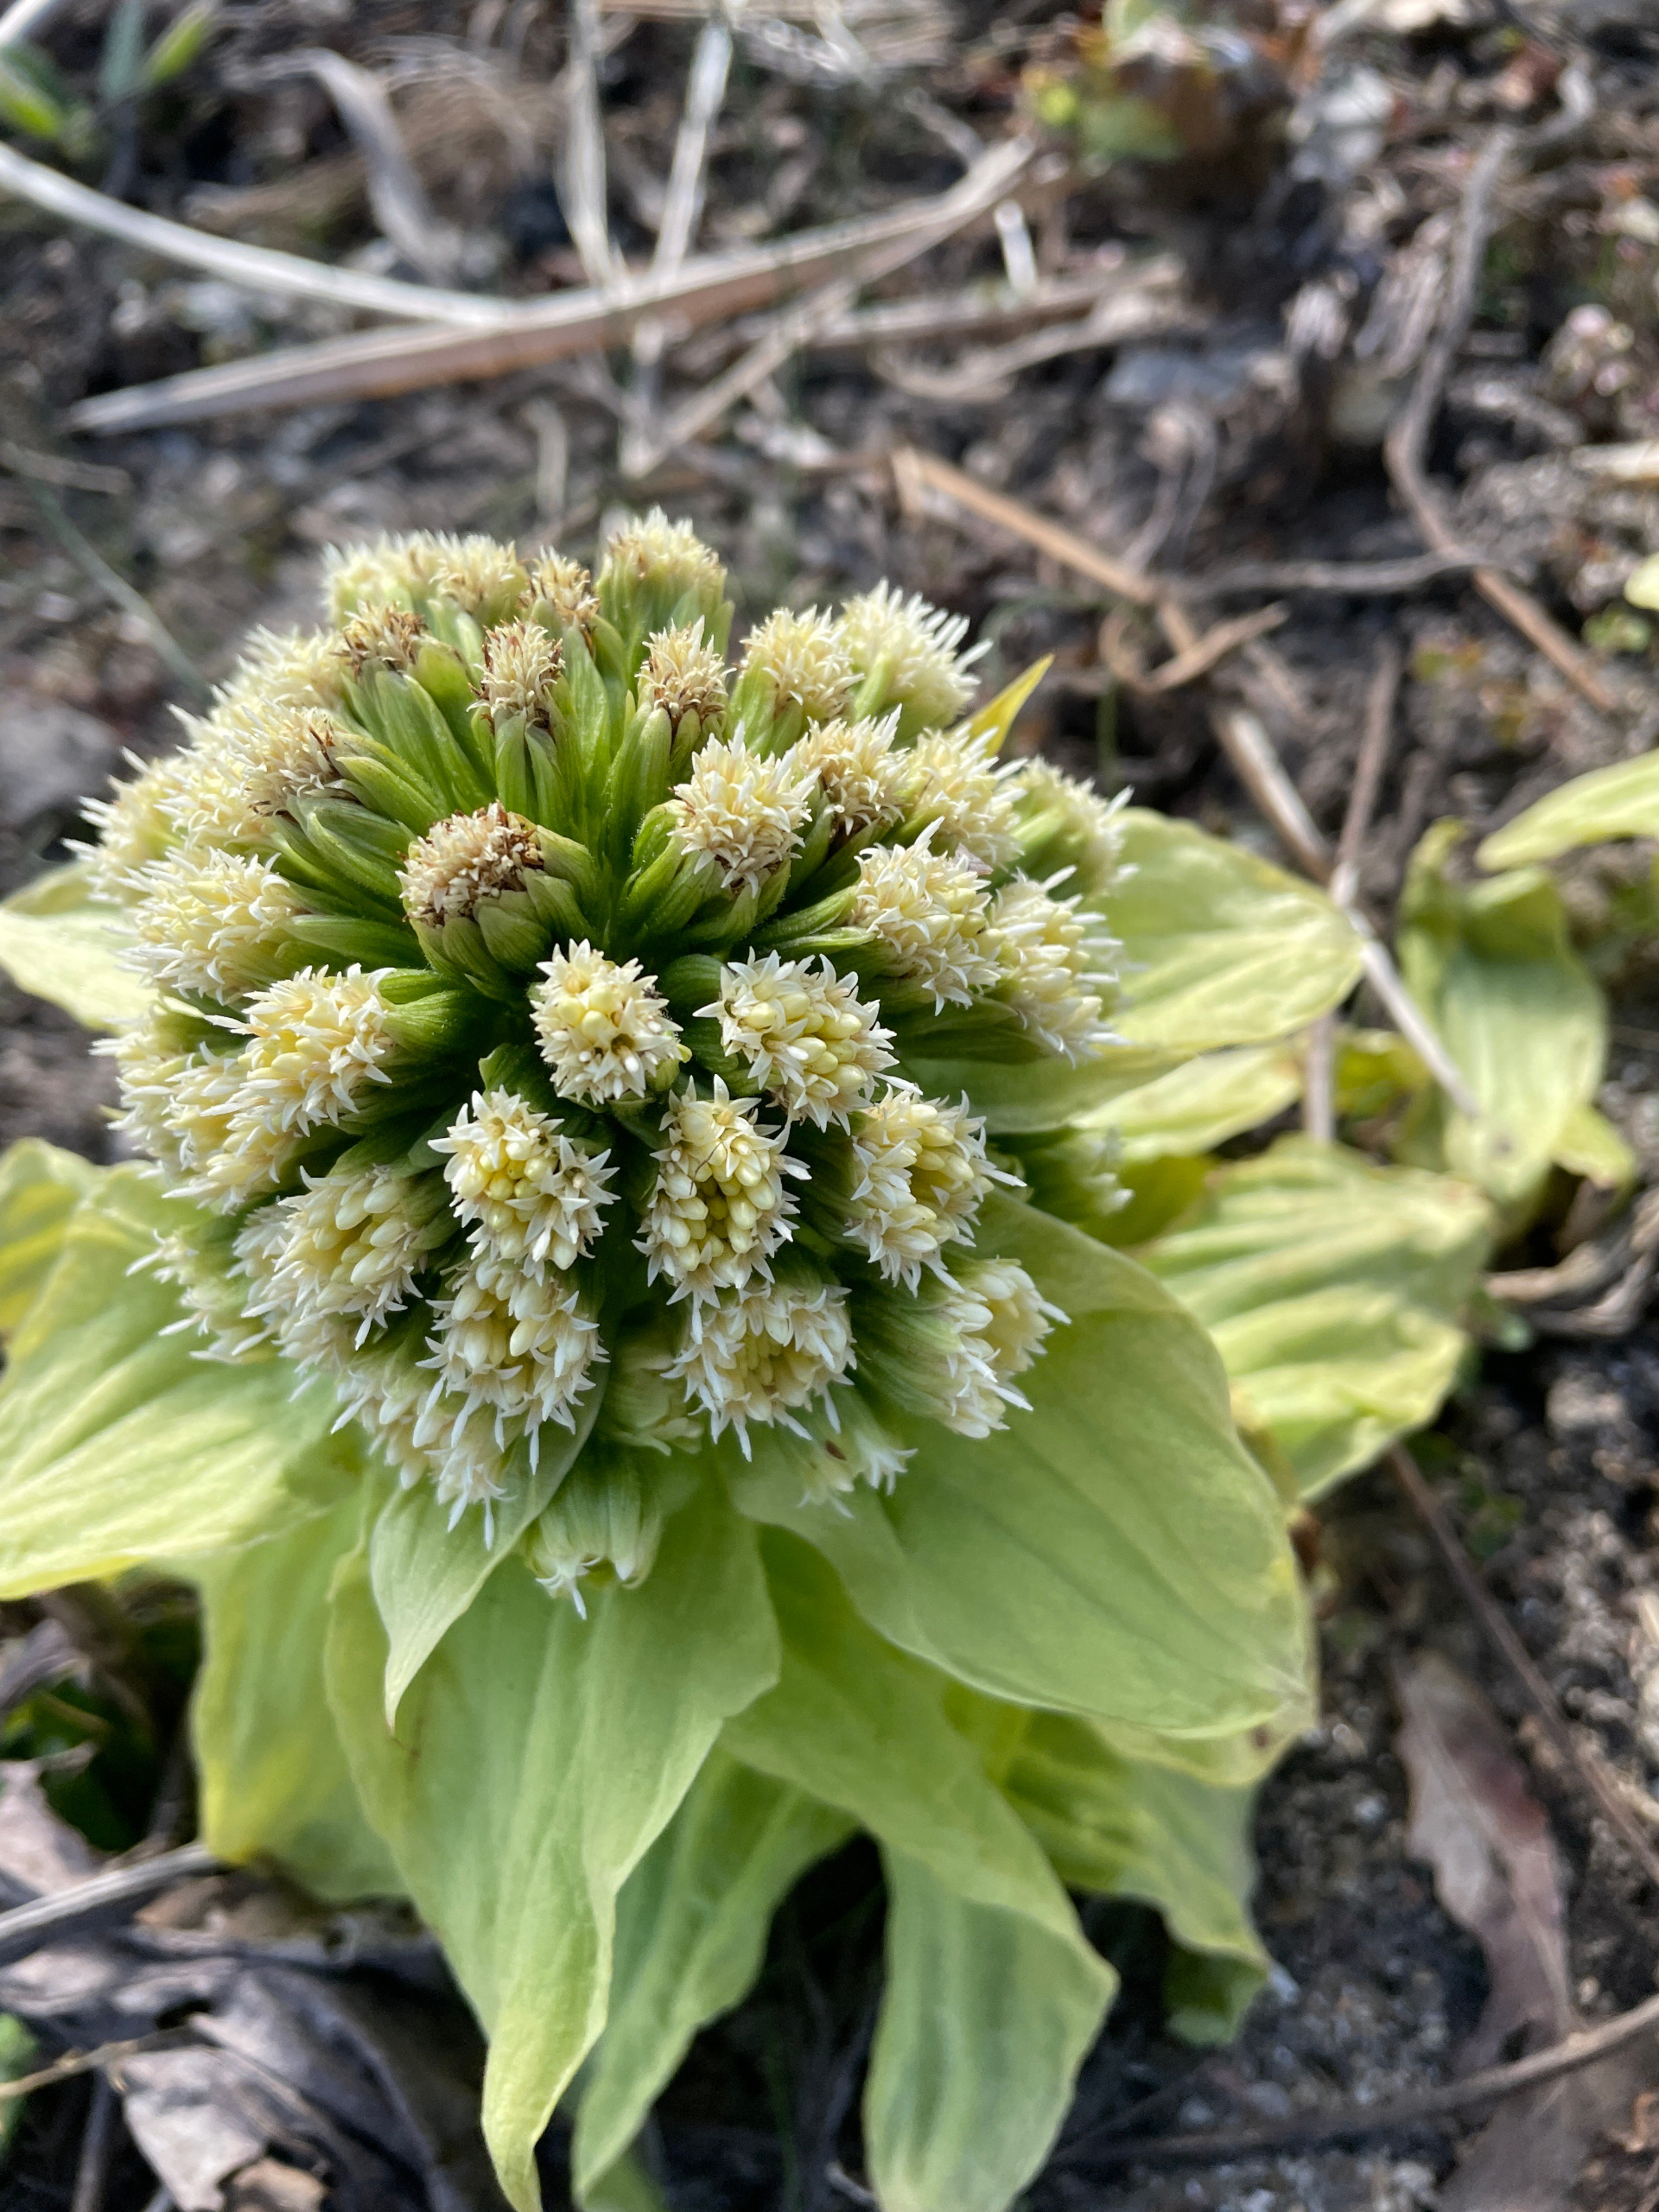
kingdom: Plantae
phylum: Tracheophyta
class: Magnoliopsida
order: Asterales
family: Asteraceae
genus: Petasites
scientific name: Petasites japonicus
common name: Japansk hestehov
